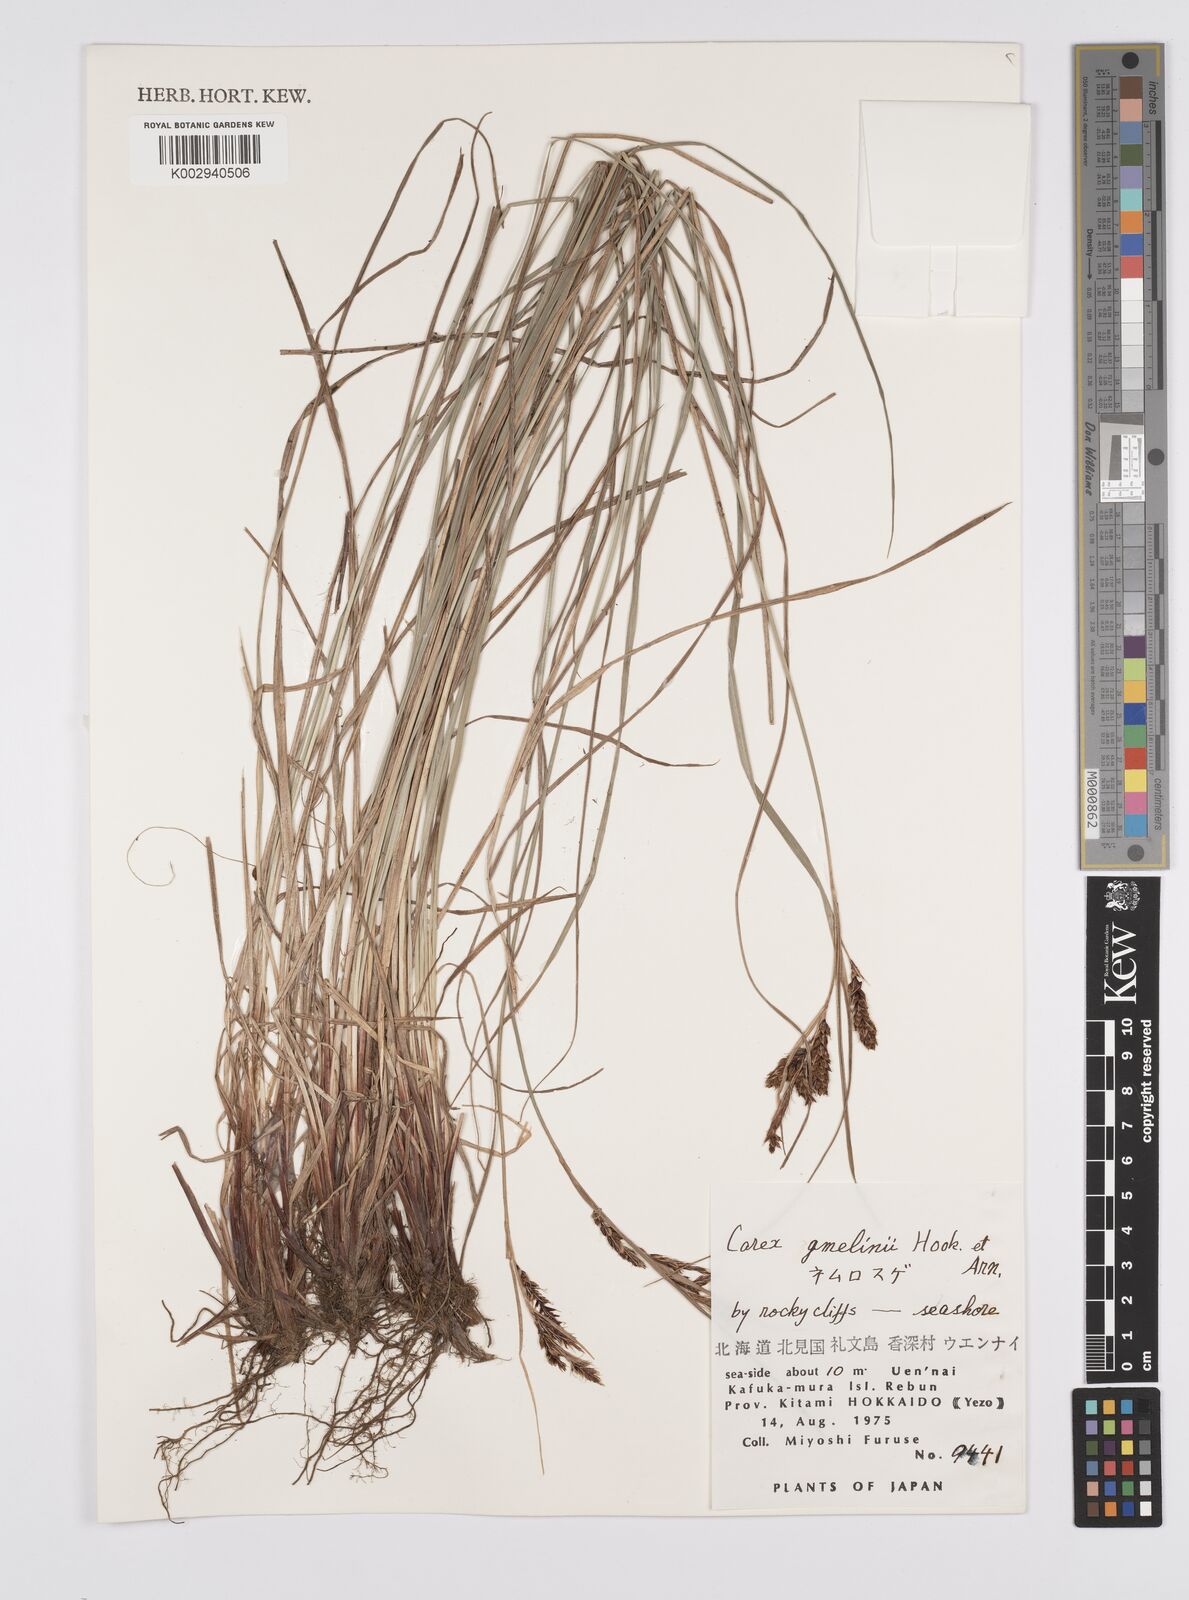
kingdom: Plantae
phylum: Tracheophyta
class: Liliopsida
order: Poales
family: Cyperaceae
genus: Carex
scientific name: Carex gmelinii
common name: Gmelin's sedge
